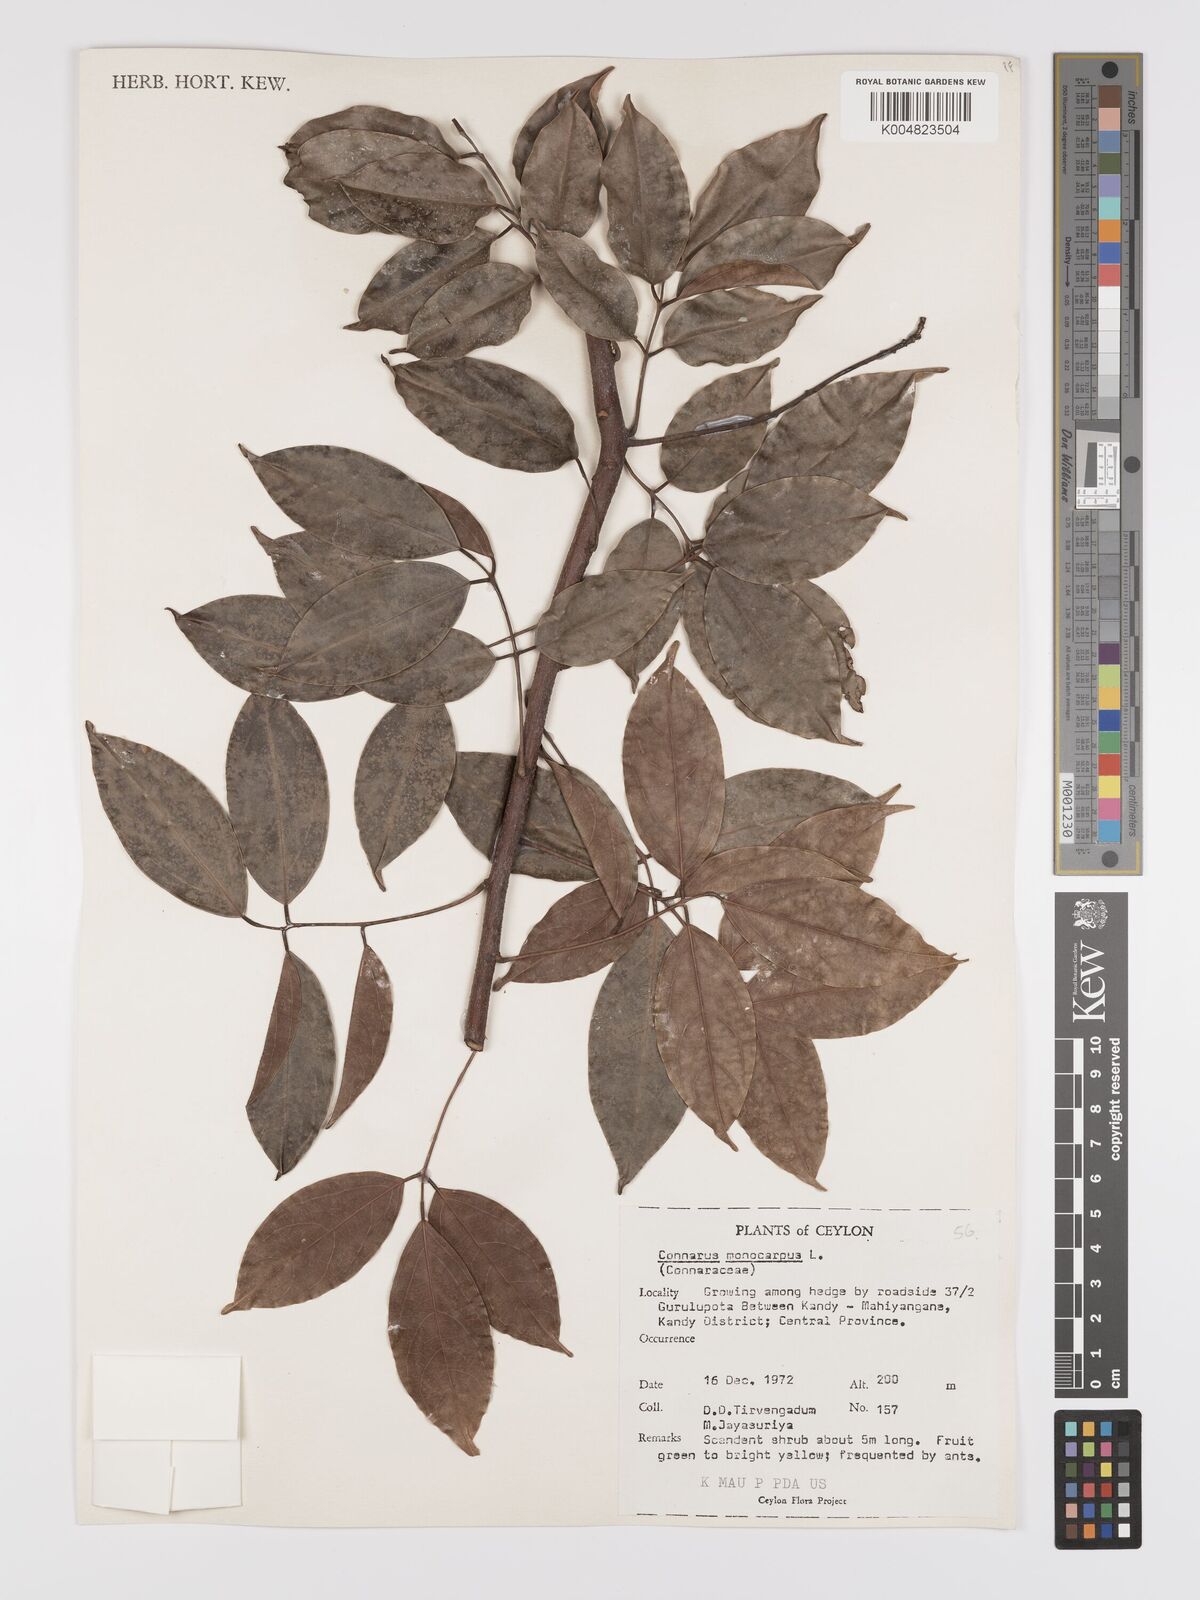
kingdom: Plantae
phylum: Tracheophyta
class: Magnoliopsida
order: Oxalidales
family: Connaraceae
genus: Connarus
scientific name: Connarus semidecandrus
